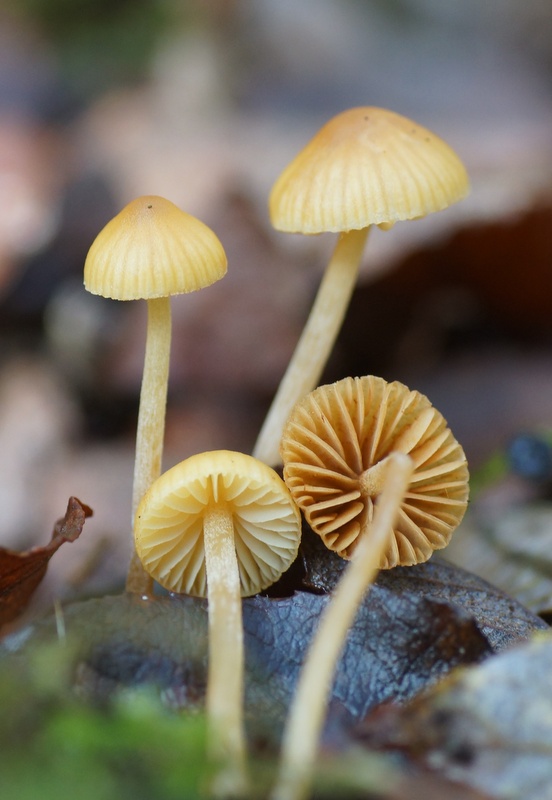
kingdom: Fungi
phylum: Basidiomycota
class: Agaricomycetes
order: Agaricales
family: Strophariaceae
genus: Hypholoma
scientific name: Hypholoma elongatum
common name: slank svovlhat
